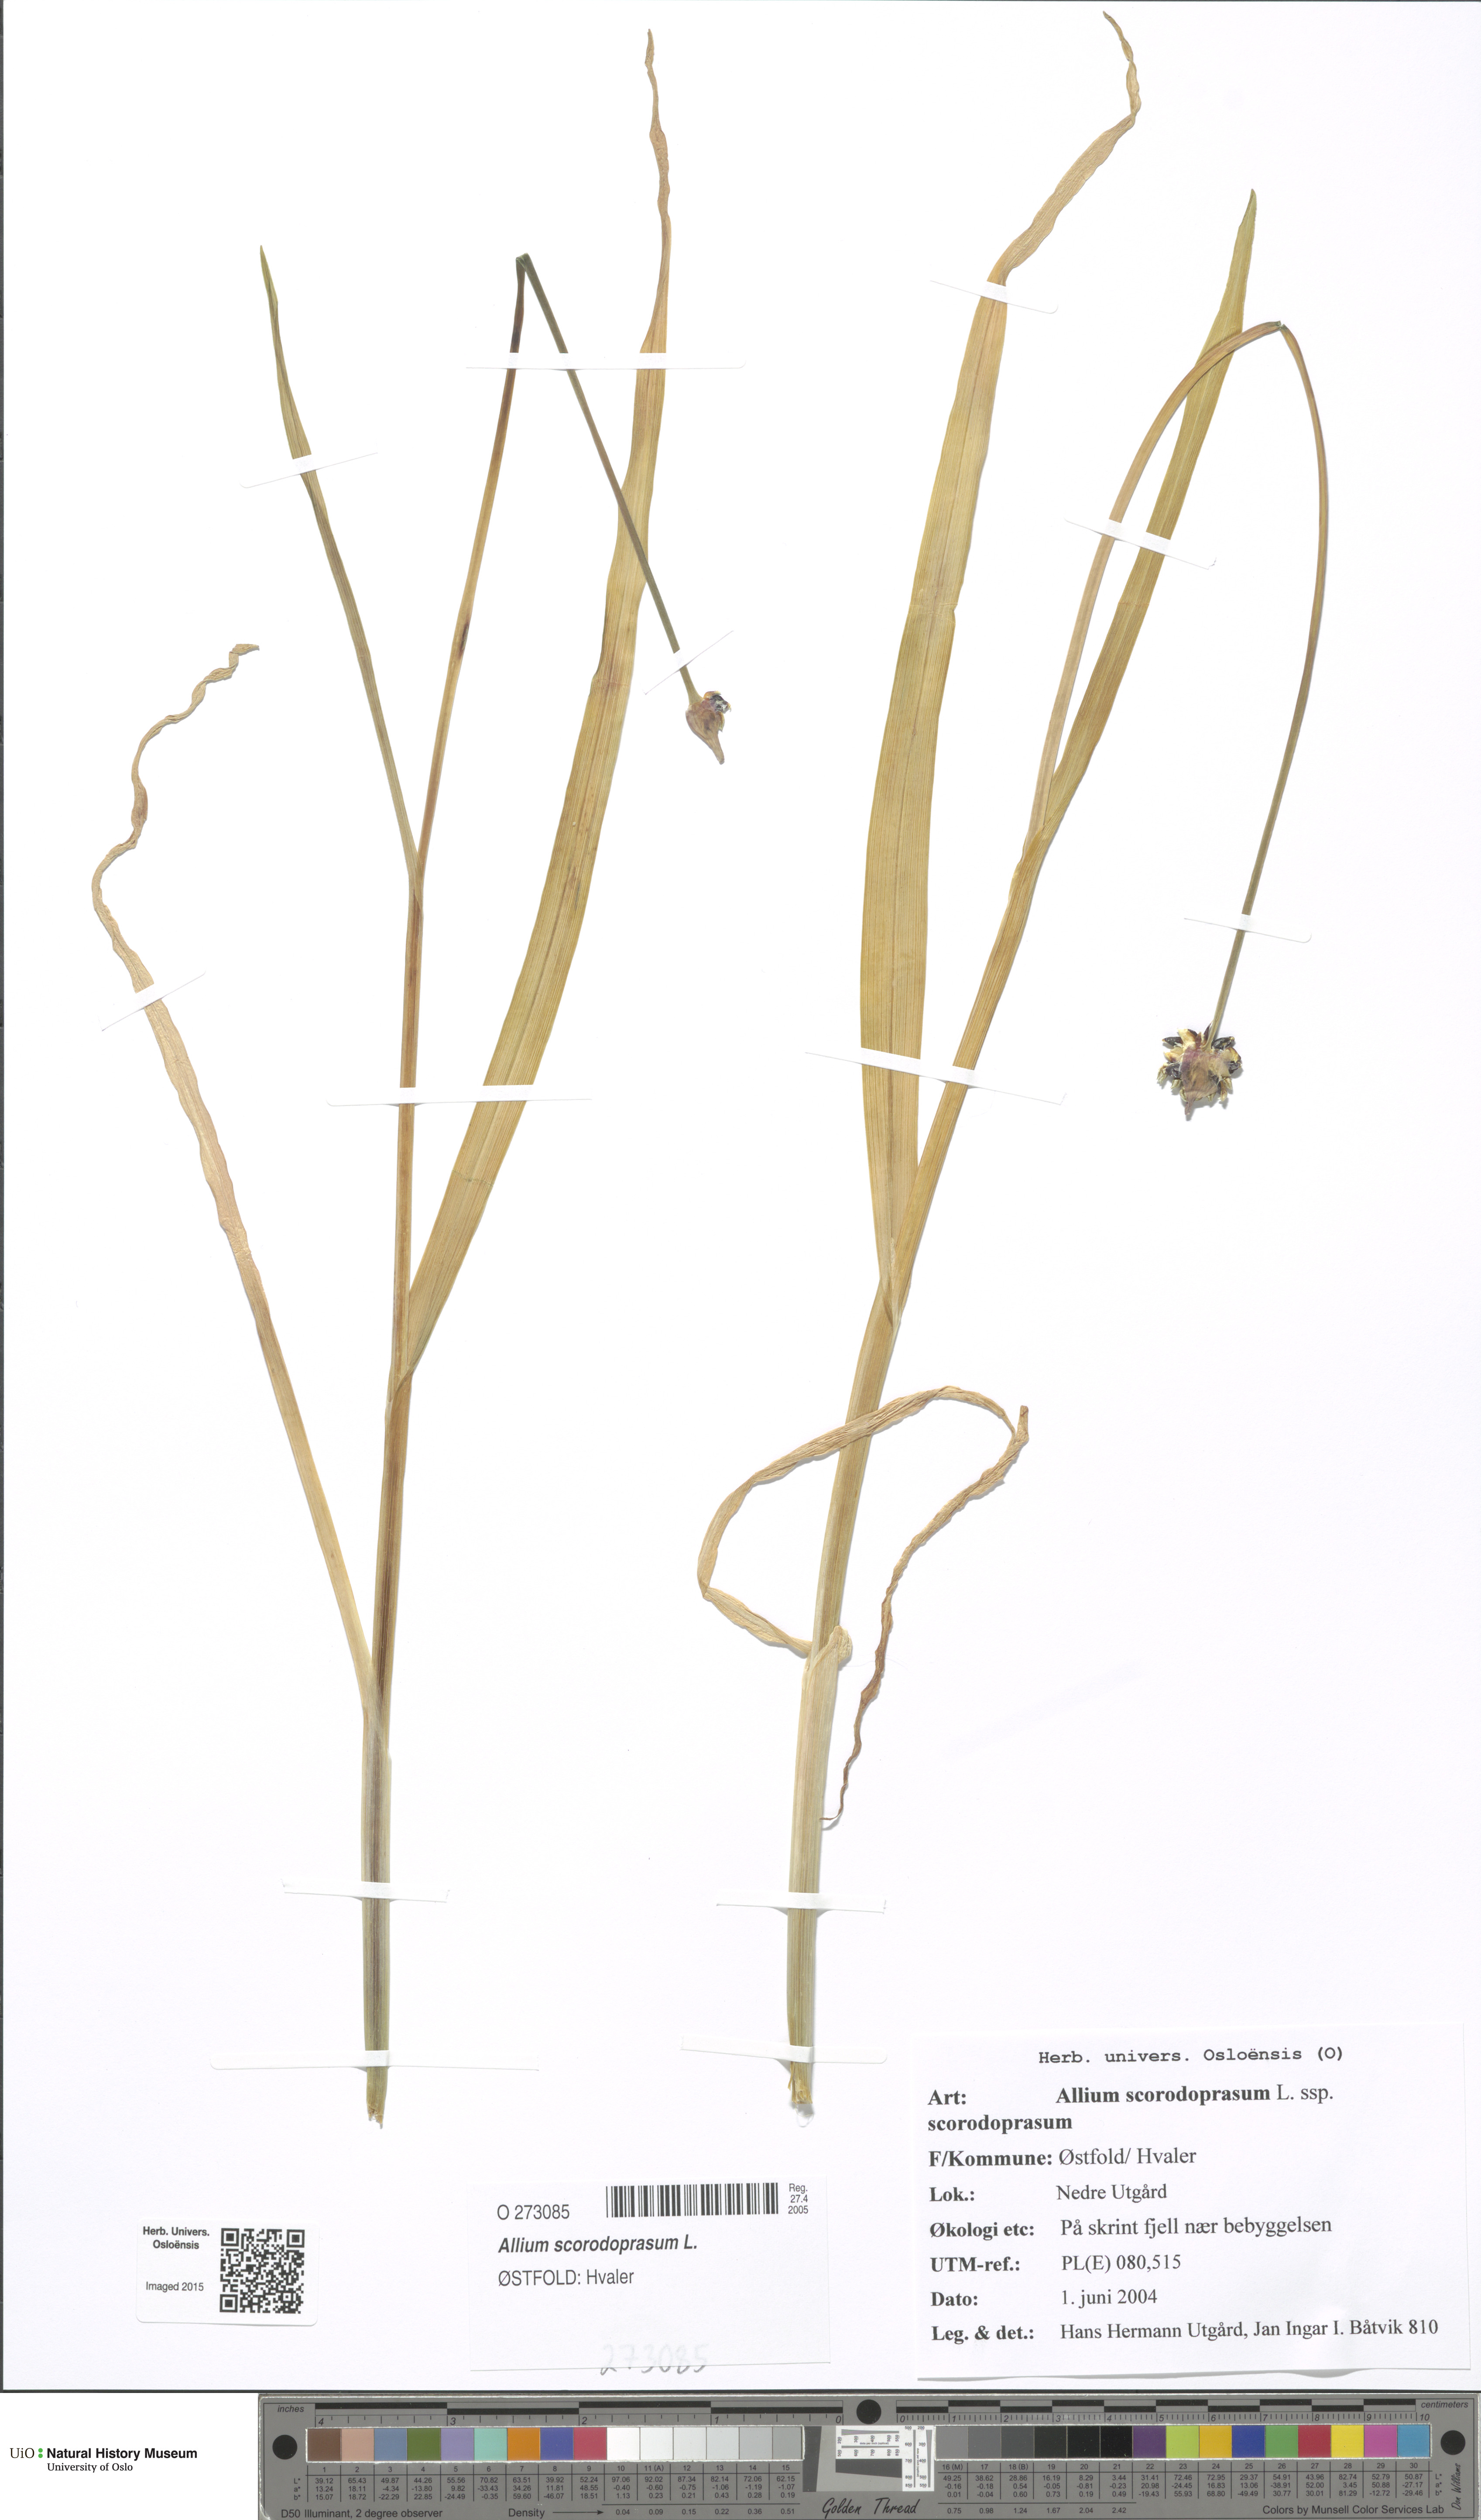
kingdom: Plantae
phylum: Tracheophyta
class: Liliopsida
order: Asparagales
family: Amaryllidaceae
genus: Allium
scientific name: Allium scorodoprasum
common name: Sand leek
